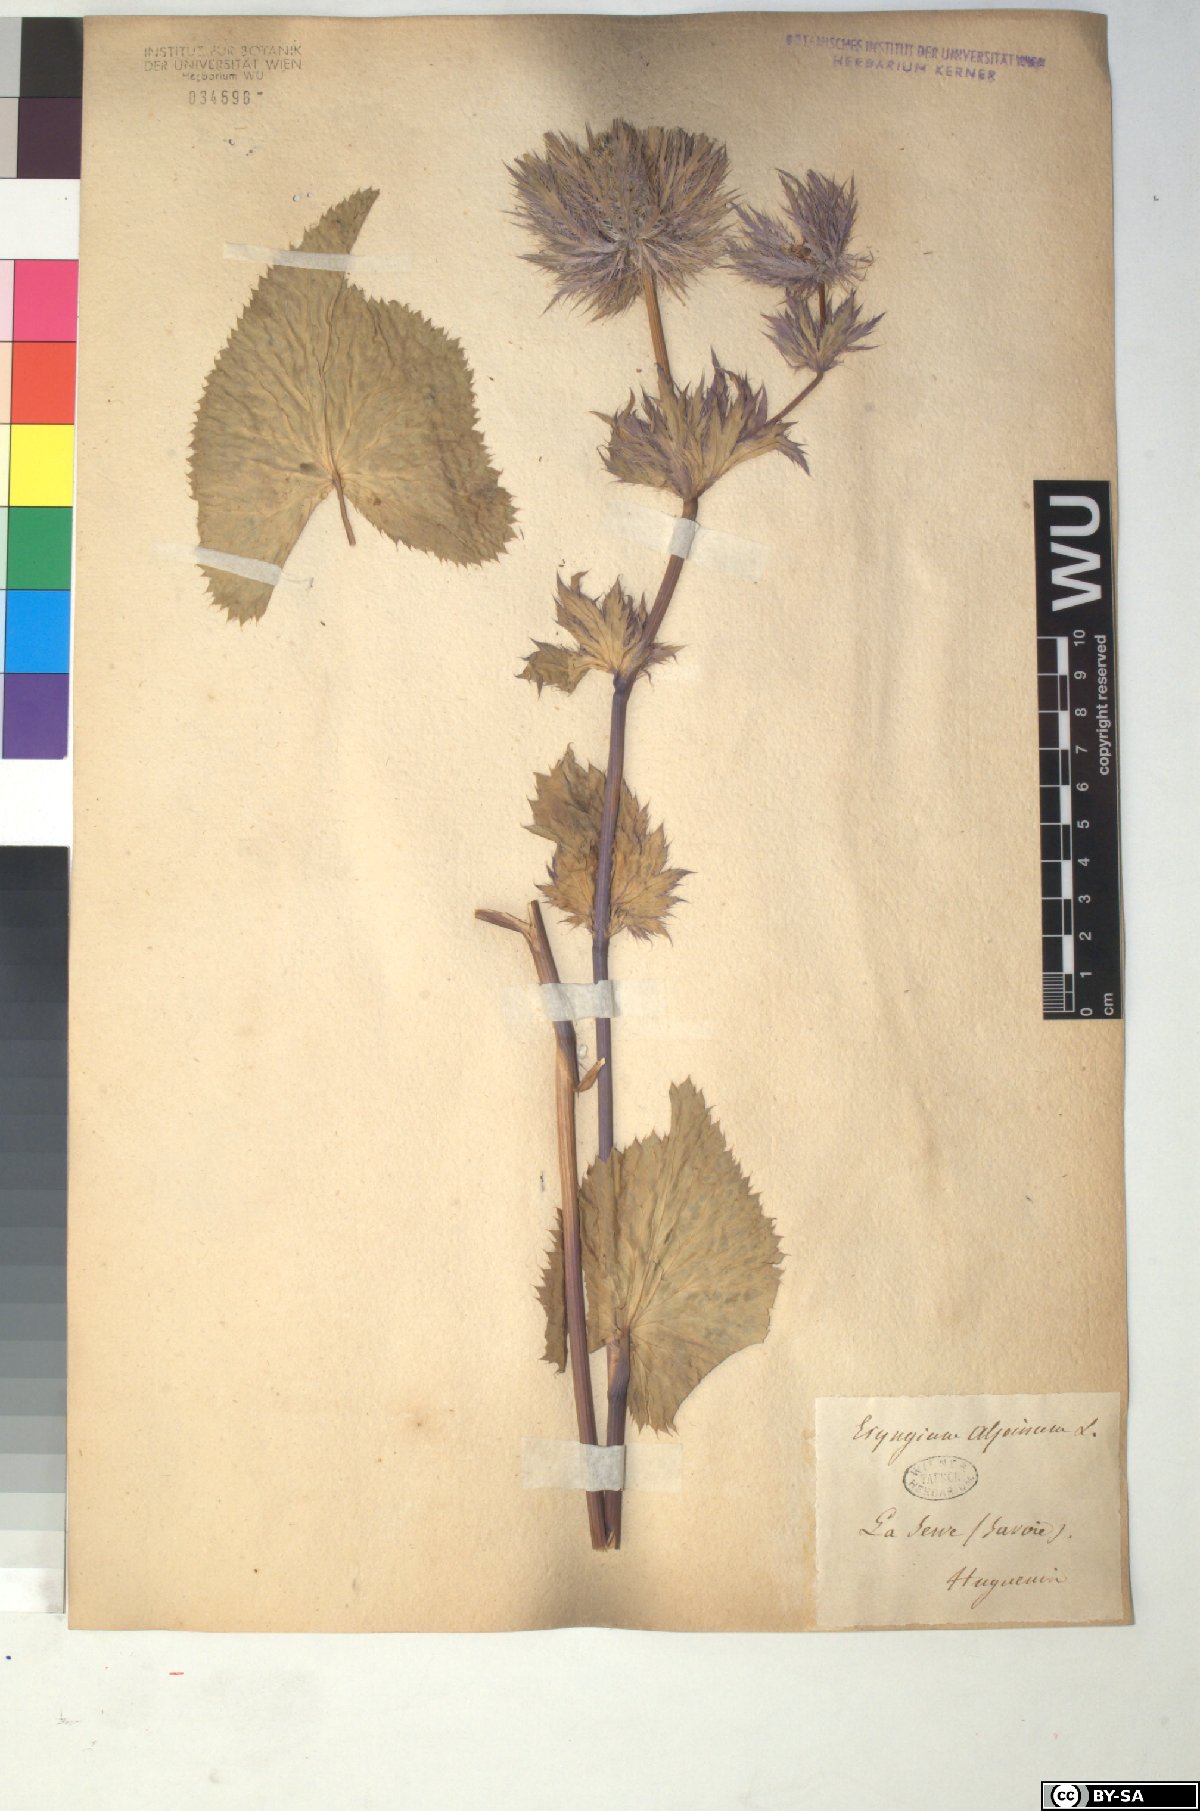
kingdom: Plantae
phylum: Tracheophyta
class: Magnoliopsida
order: Apiales
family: Apiaceae
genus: Eryngium
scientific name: Eryngium alpinum
